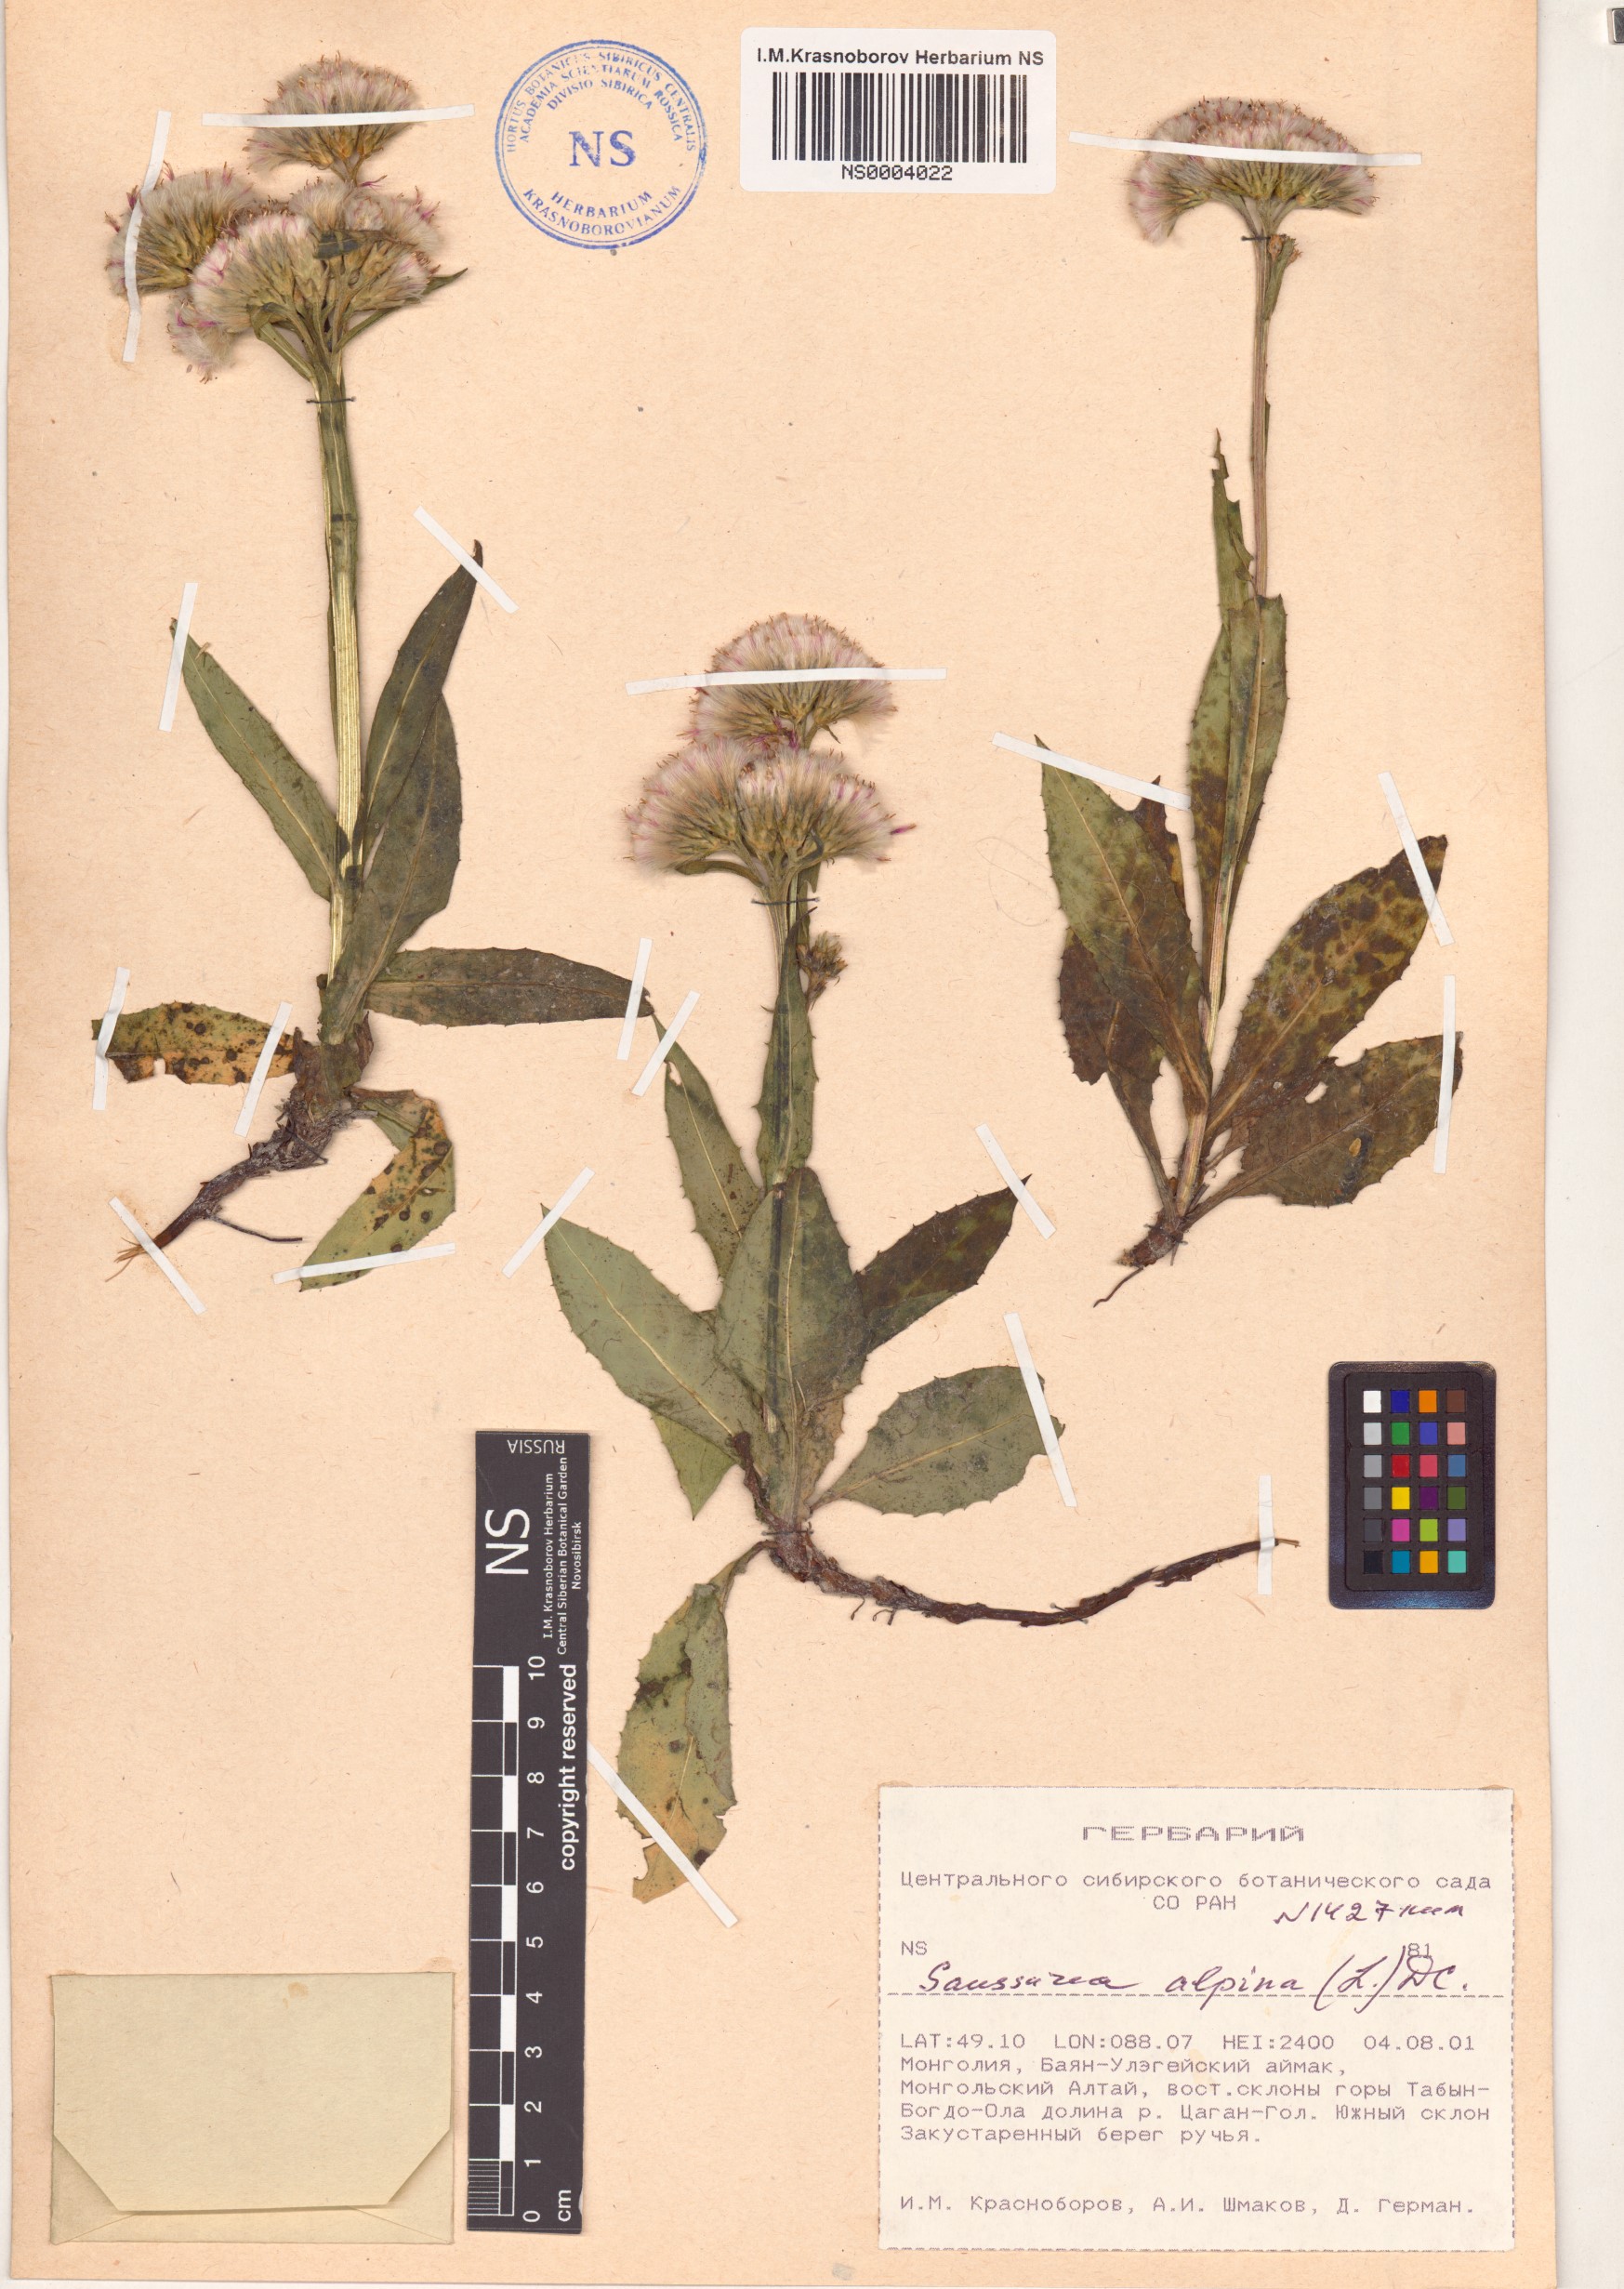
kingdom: Plantae
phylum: Tracheophyta
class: Magnoliopsida
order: Asterales
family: Asteraceae
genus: Saussurea
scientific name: Saussurea alpina
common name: Alpine saw-wort
